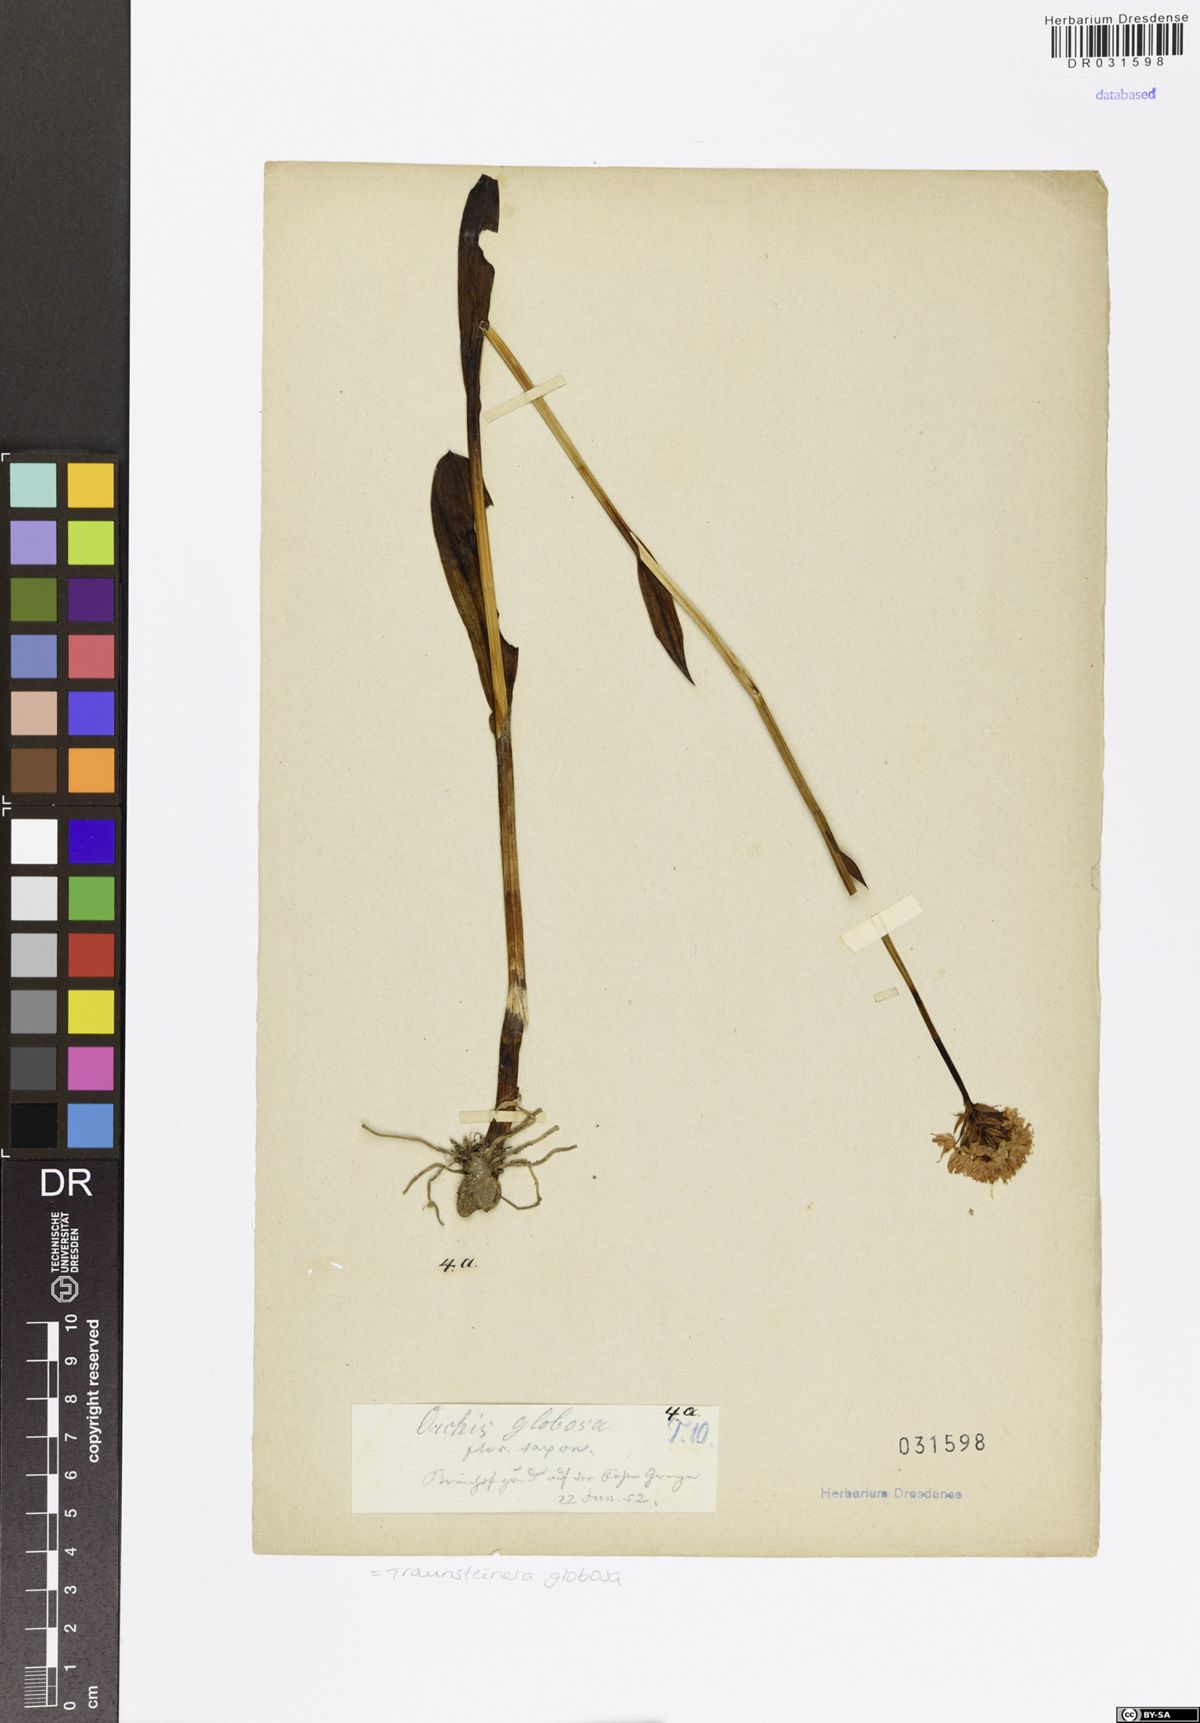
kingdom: Plantae
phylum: Tracheophyta
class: Liliopsida
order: Asparagales
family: Orchidaceae
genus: Traunsteinera
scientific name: Traunsteinera globosa
